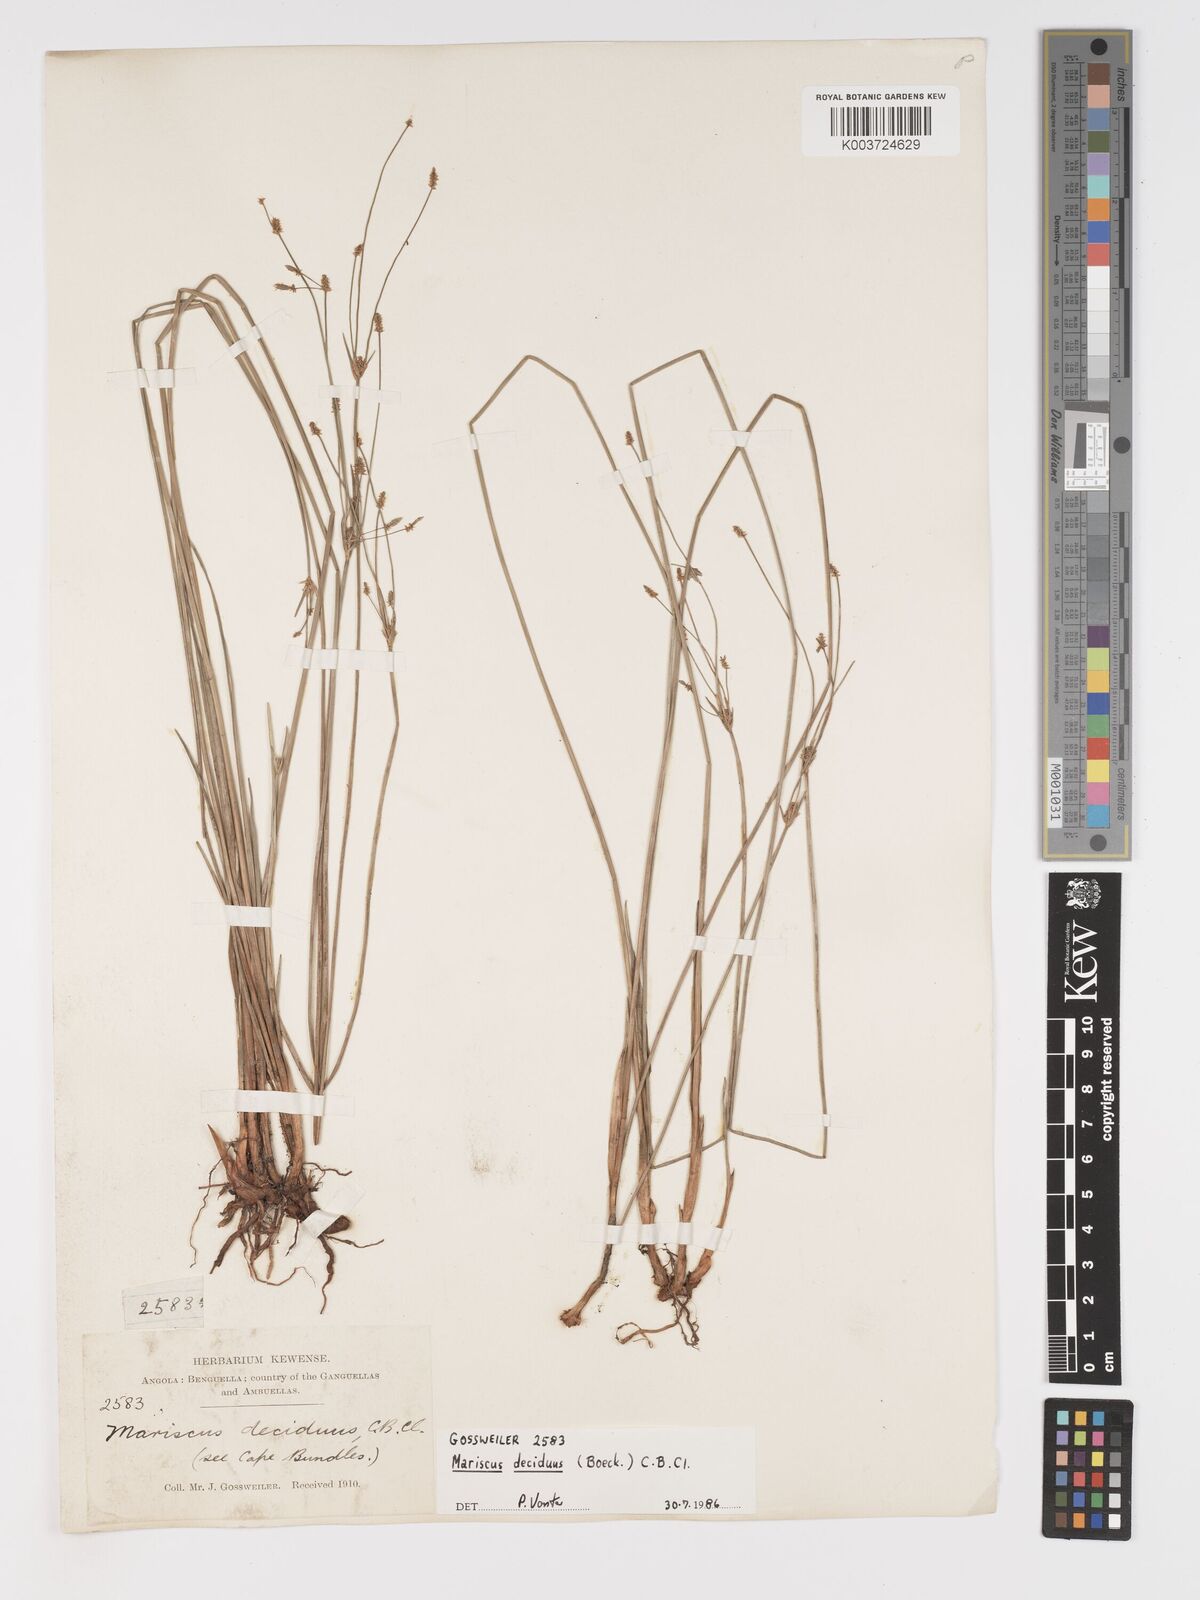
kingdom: Plantae
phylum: Tracheophyta
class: Liliopsida
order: Poales
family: Cyperaceae
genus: Cyperus
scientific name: Cyperus deciduus
